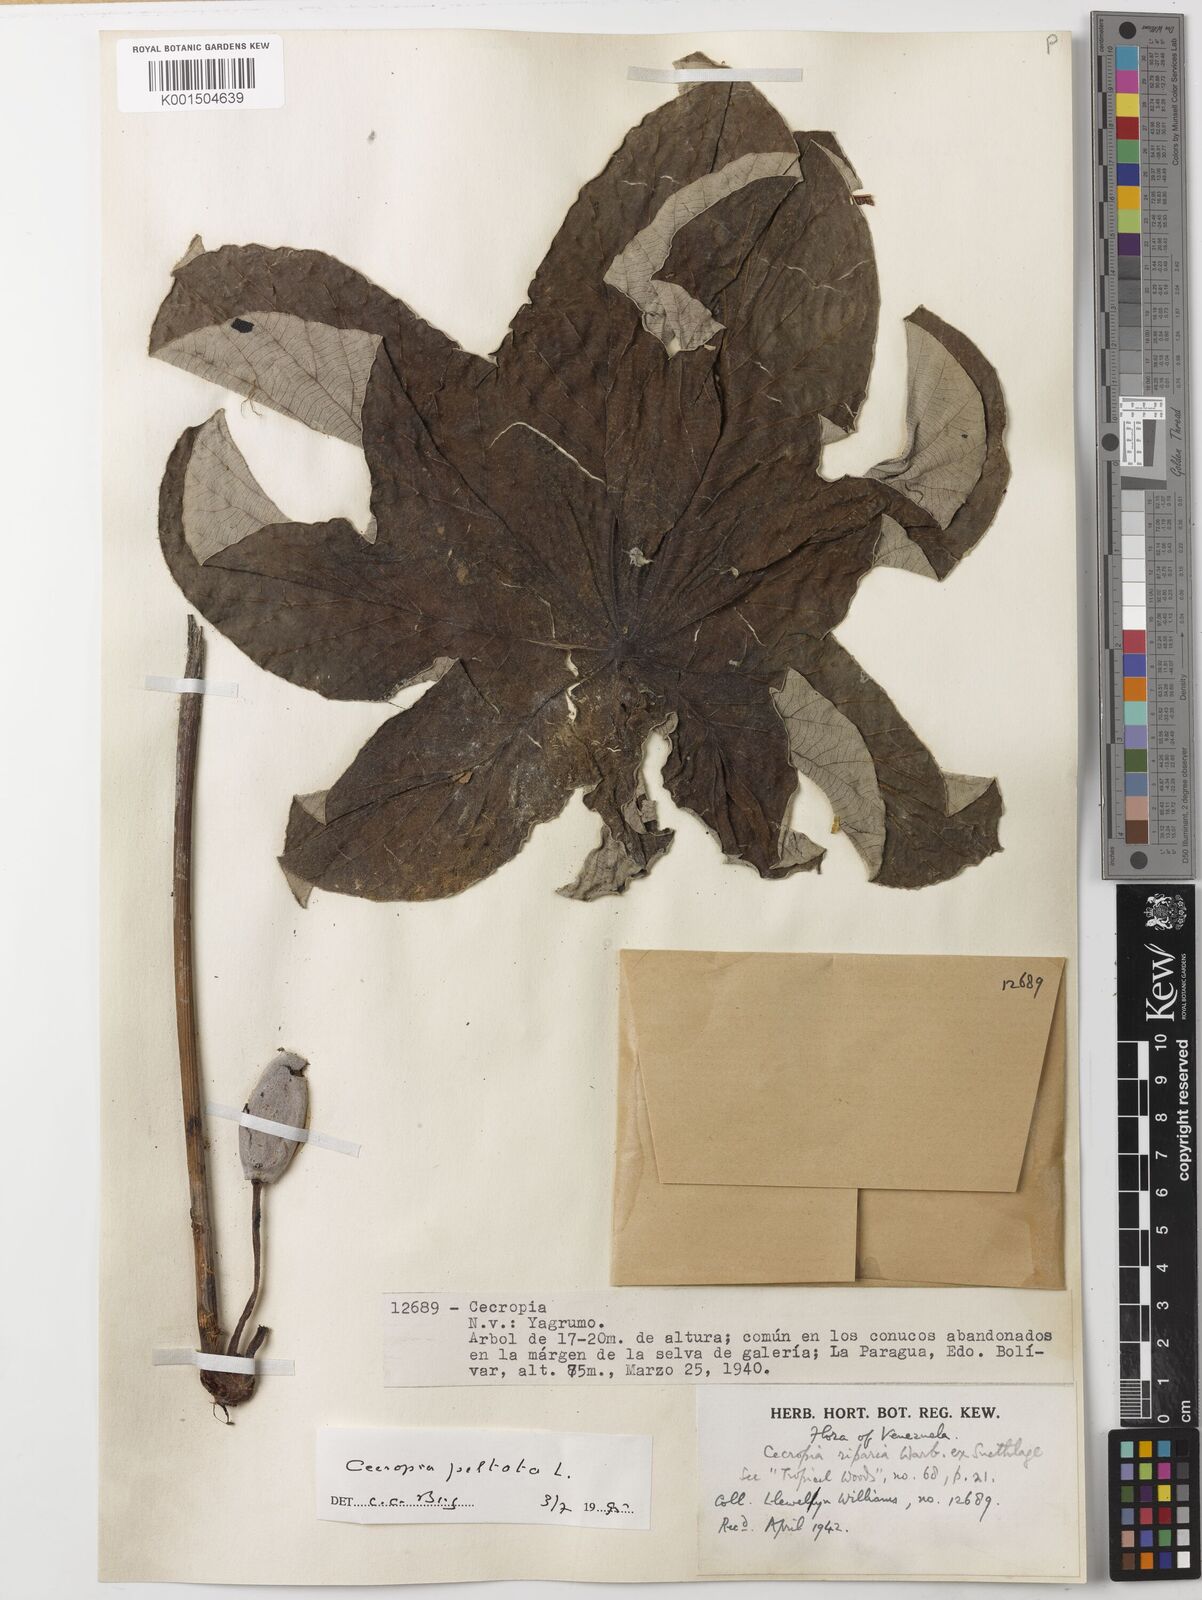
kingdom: Plantae
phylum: Tracheophyta
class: Magnoliopsida
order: Rosales
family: Urticaceae
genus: Cecropia
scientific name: Cecropia peltata
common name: Trumpet-tree
